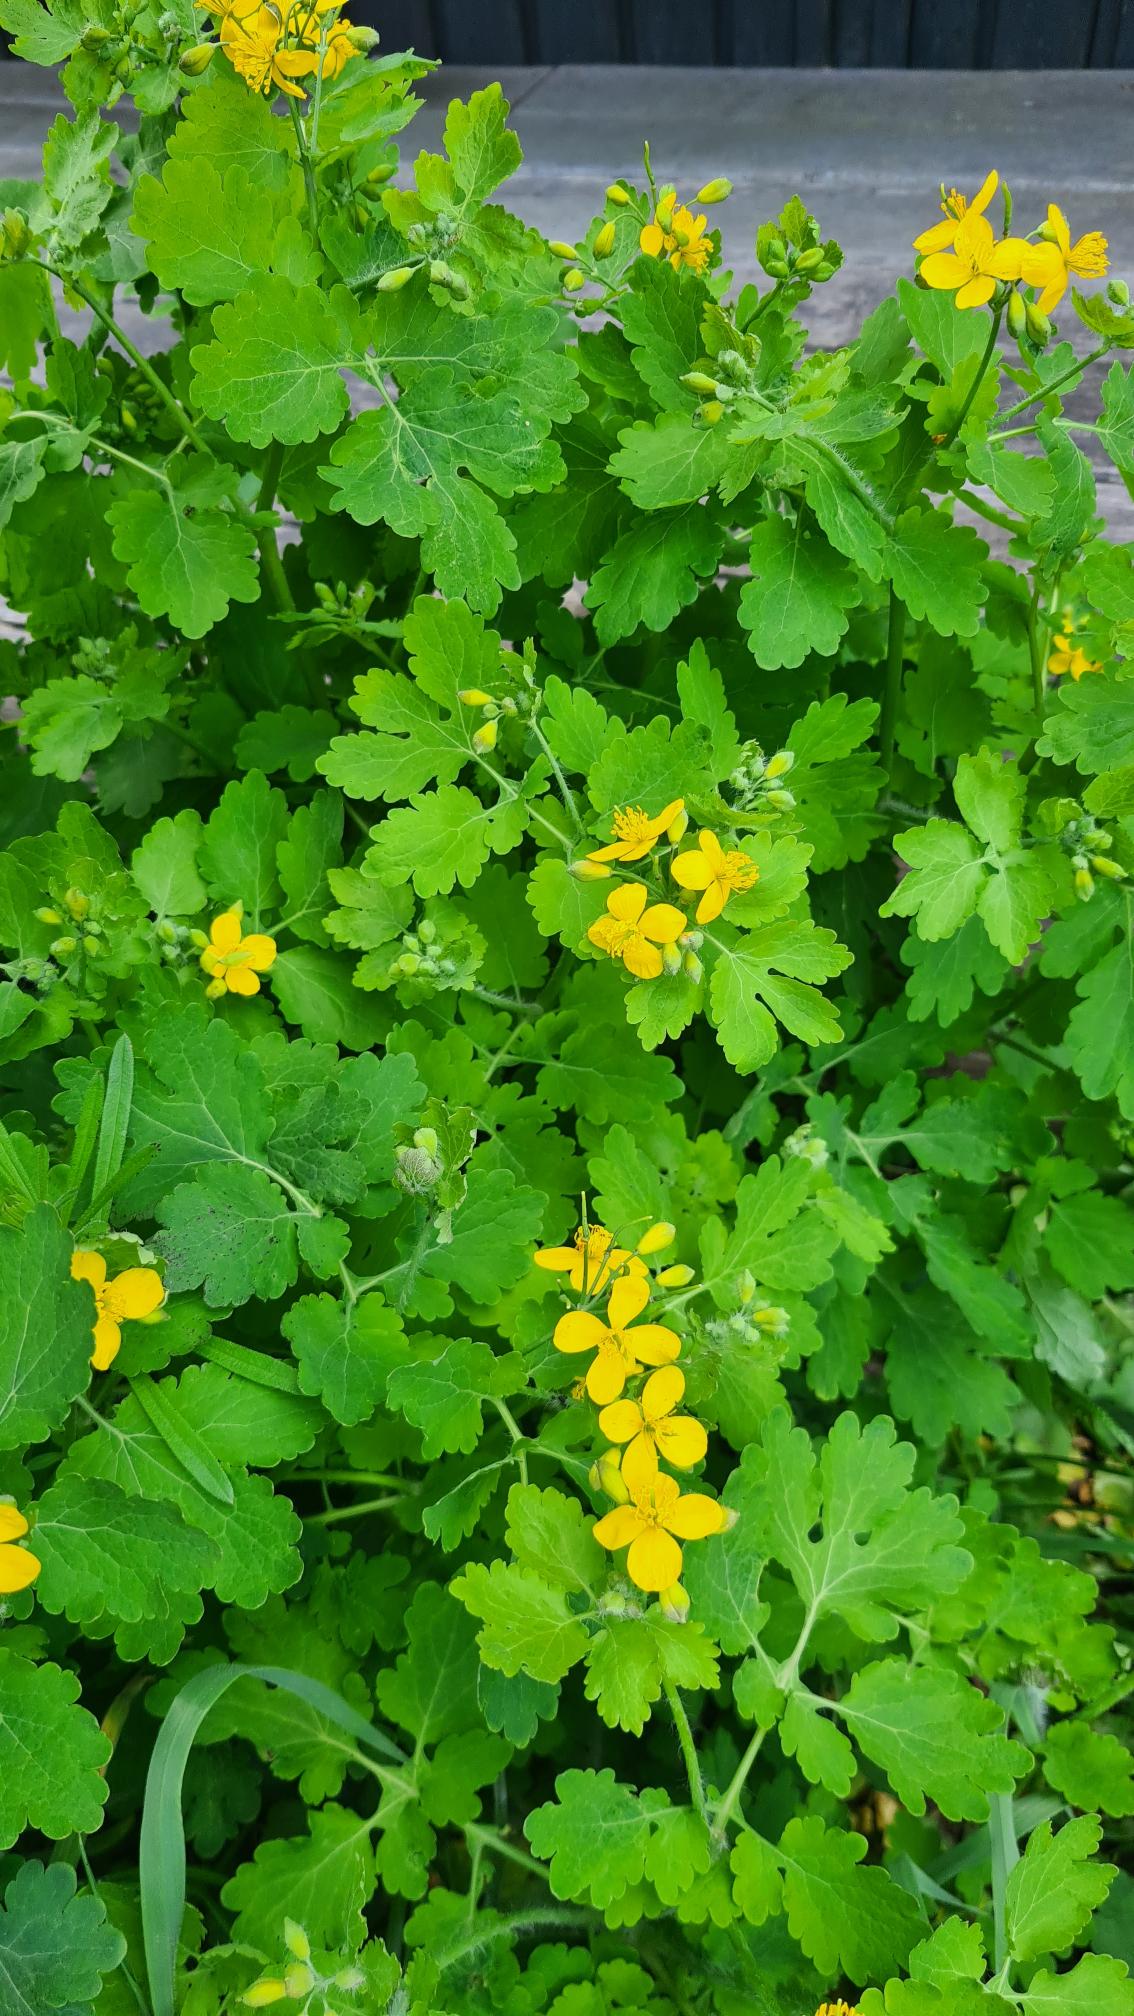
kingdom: Plantae
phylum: Tracheophyta
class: Magnoliopsida
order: Ranunculales
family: Papaveraceae
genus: Chelidonium
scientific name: Chelidonium majus
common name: Svaleurt
